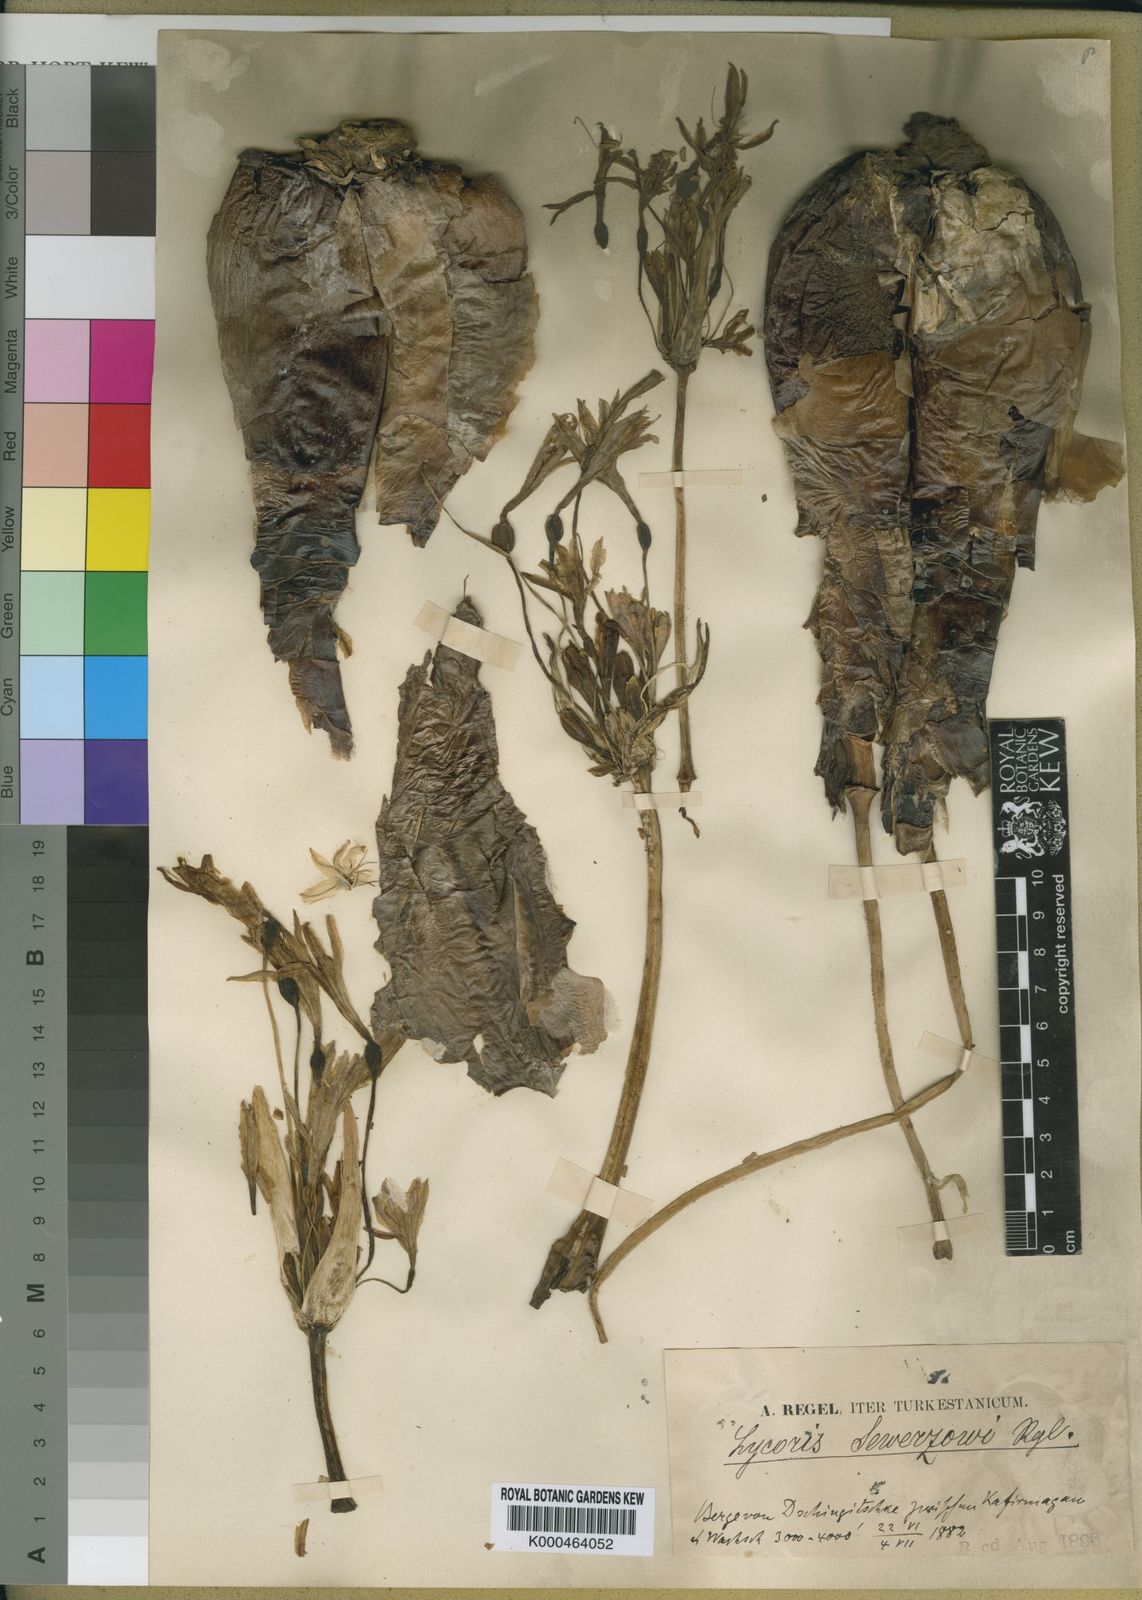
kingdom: Plantae
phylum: Tracheophyta
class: Liliopsida
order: Asparagales
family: Amaryllidaceae
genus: Ungernia
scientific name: Ungernia trisphaera
